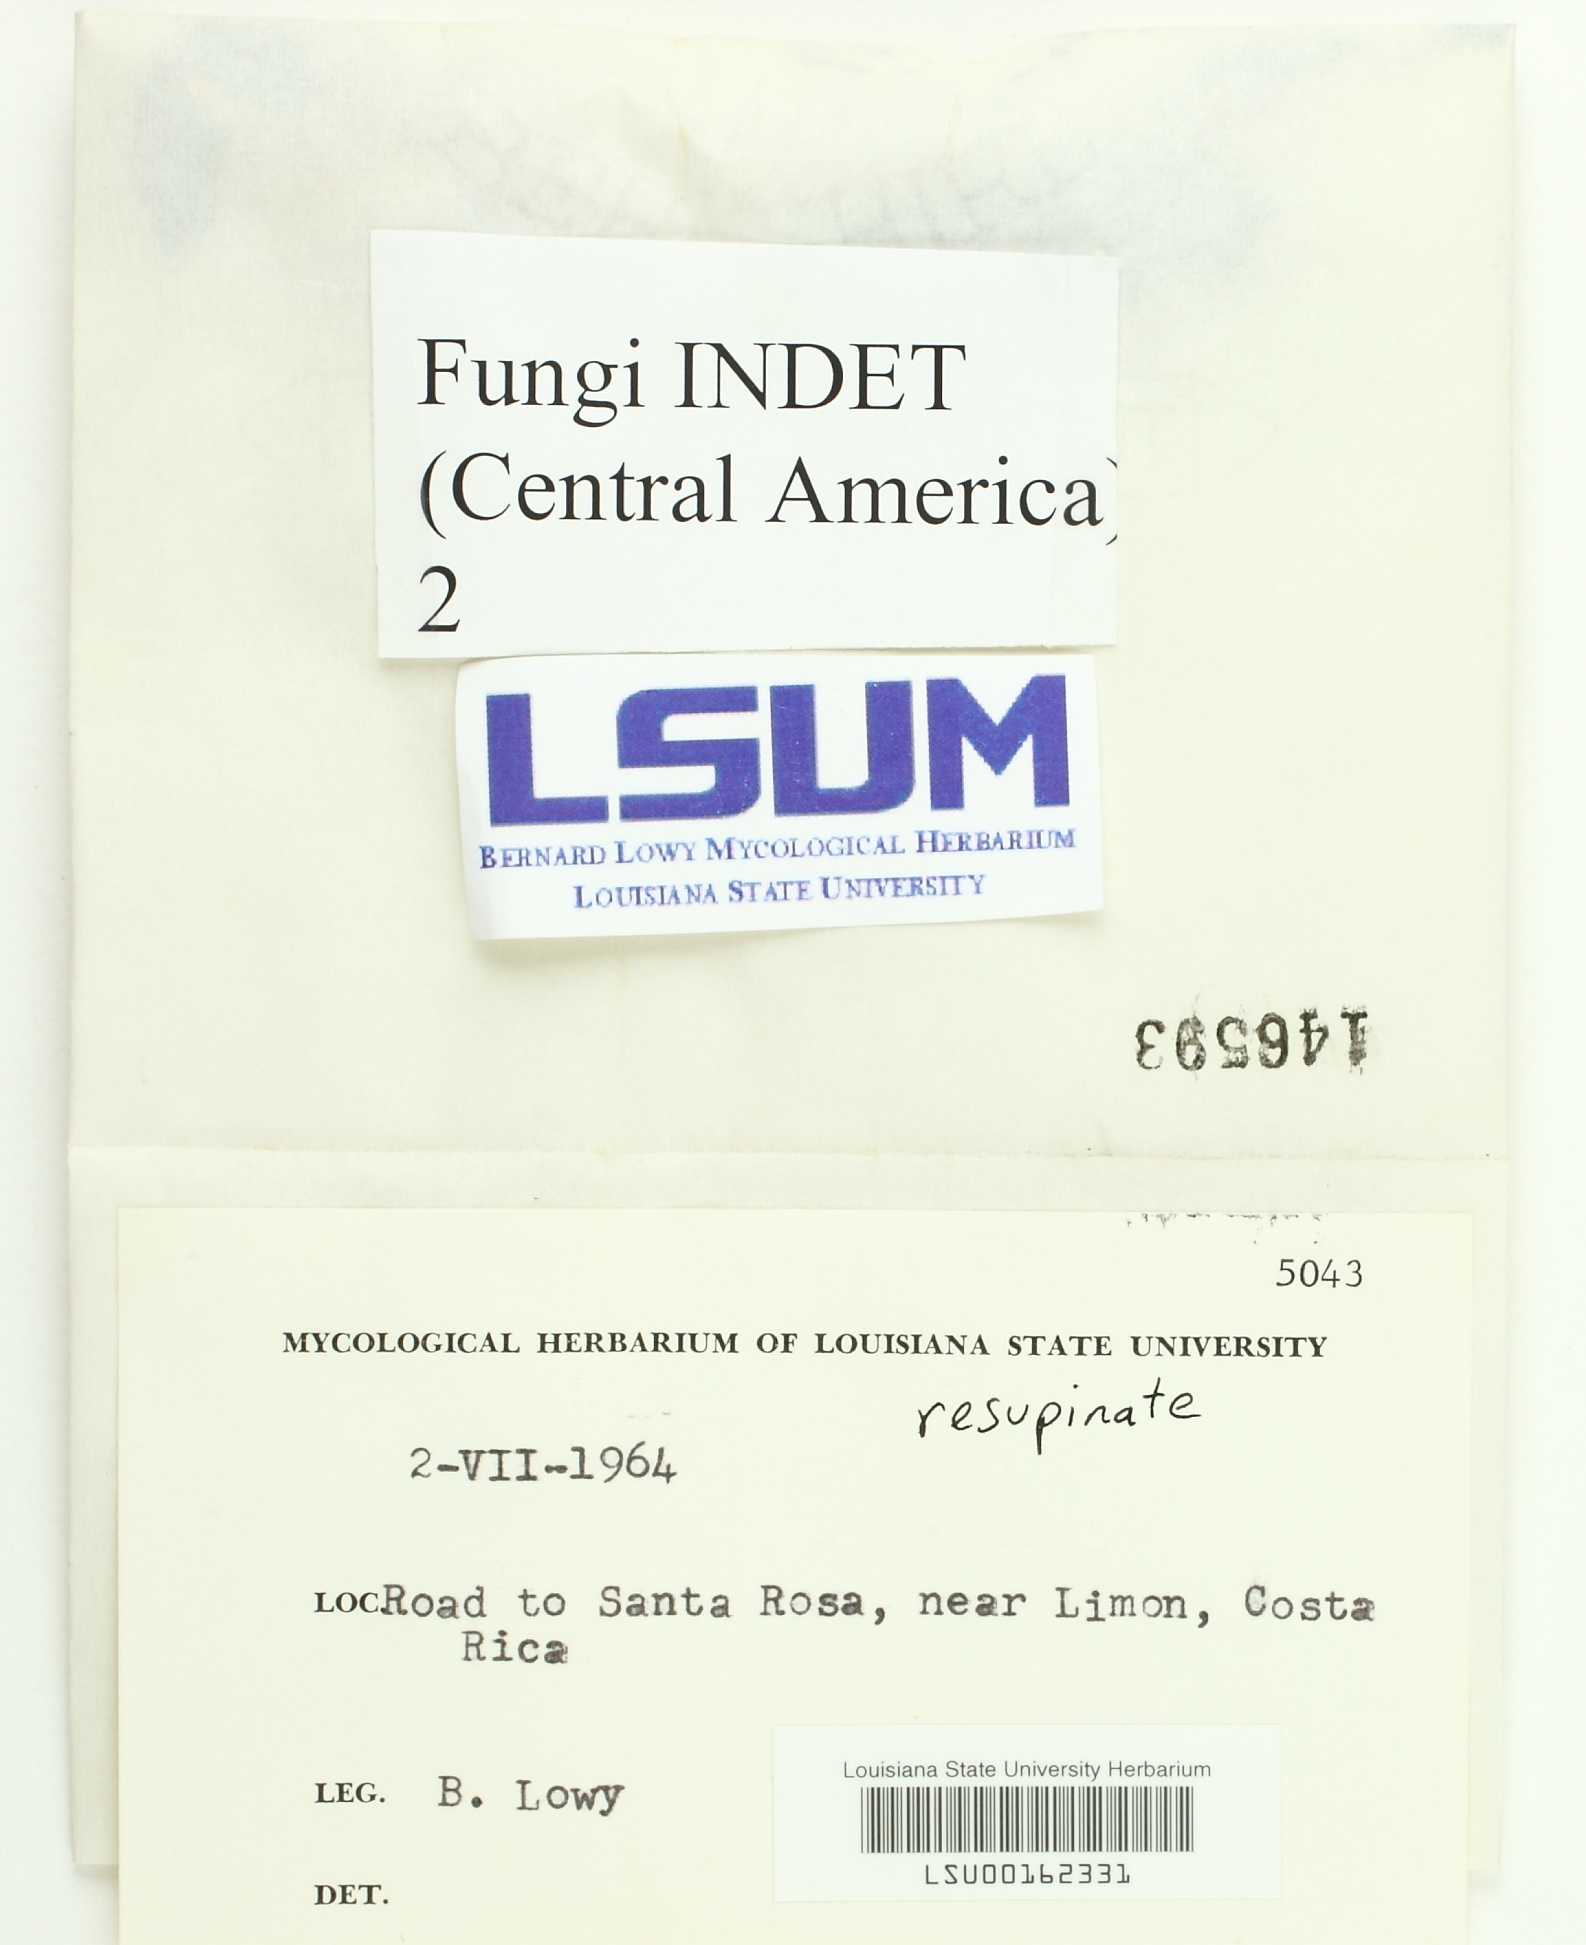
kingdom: Fungi
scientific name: Fungi
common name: Fungi
